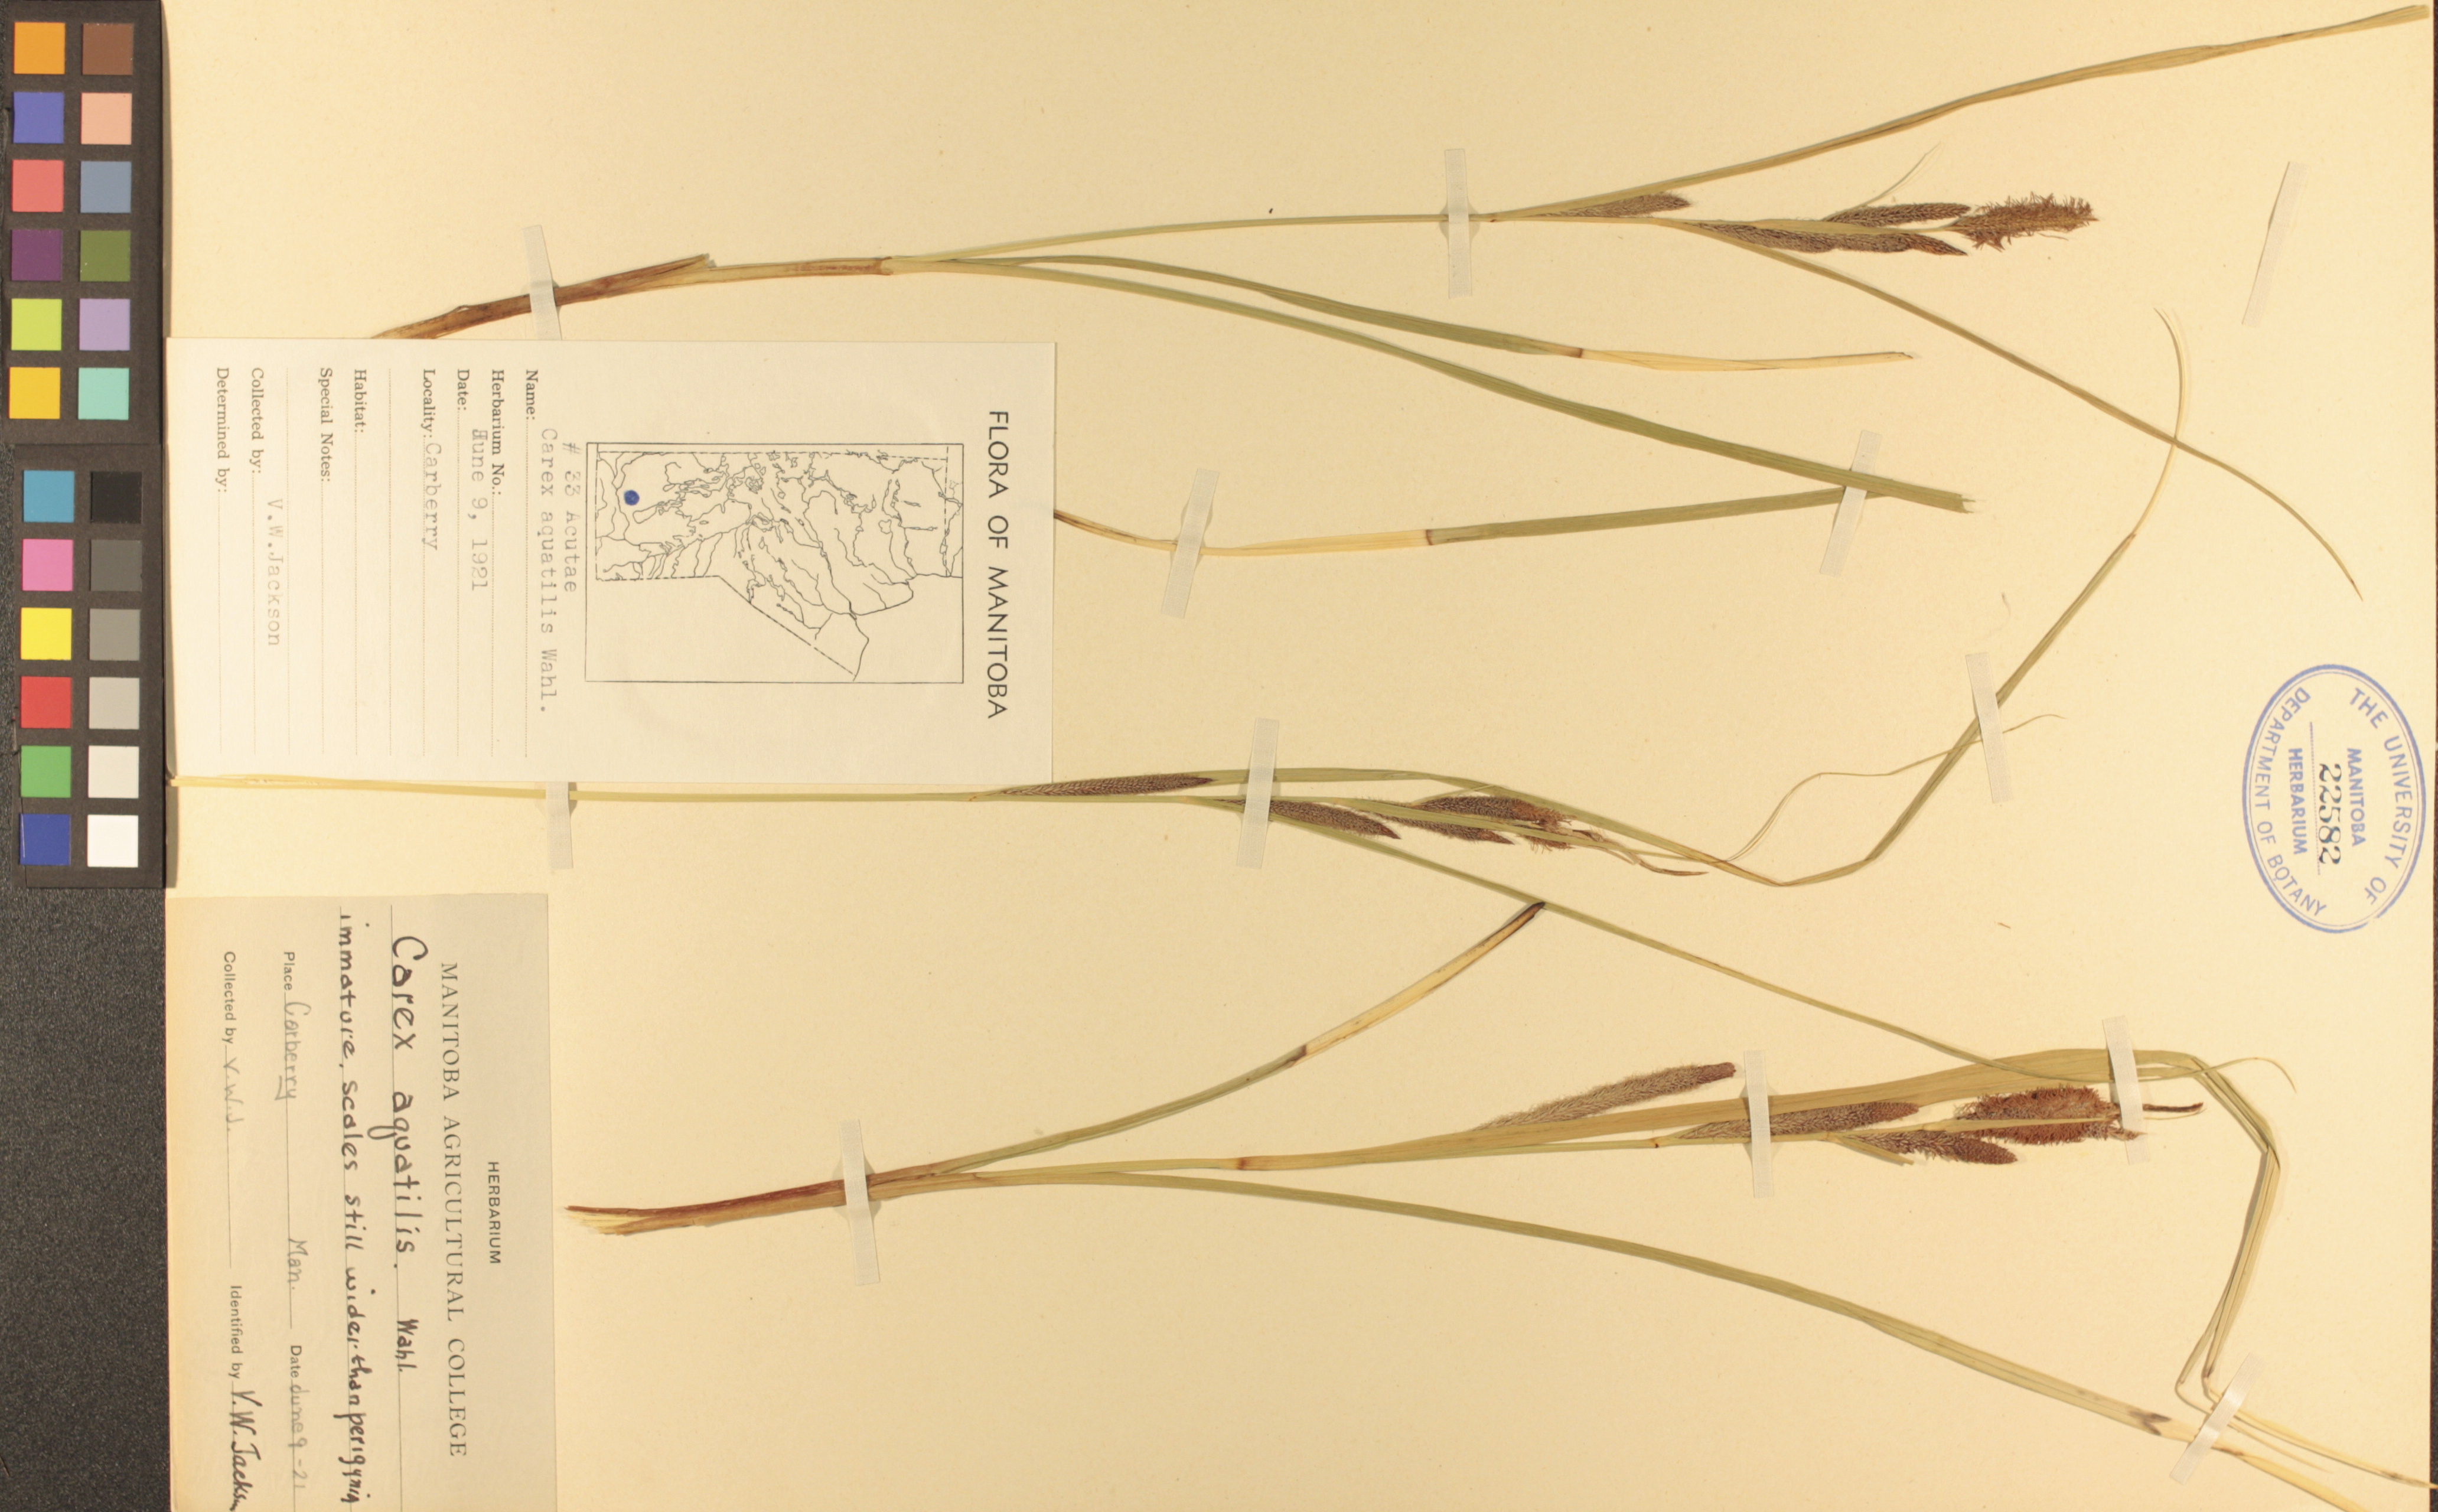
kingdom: Plantae
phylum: Tracheophyta
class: Liliopsida
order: Poales
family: Cyperaceae
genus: Carex
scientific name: Carex aquatilis
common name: Water sedge
